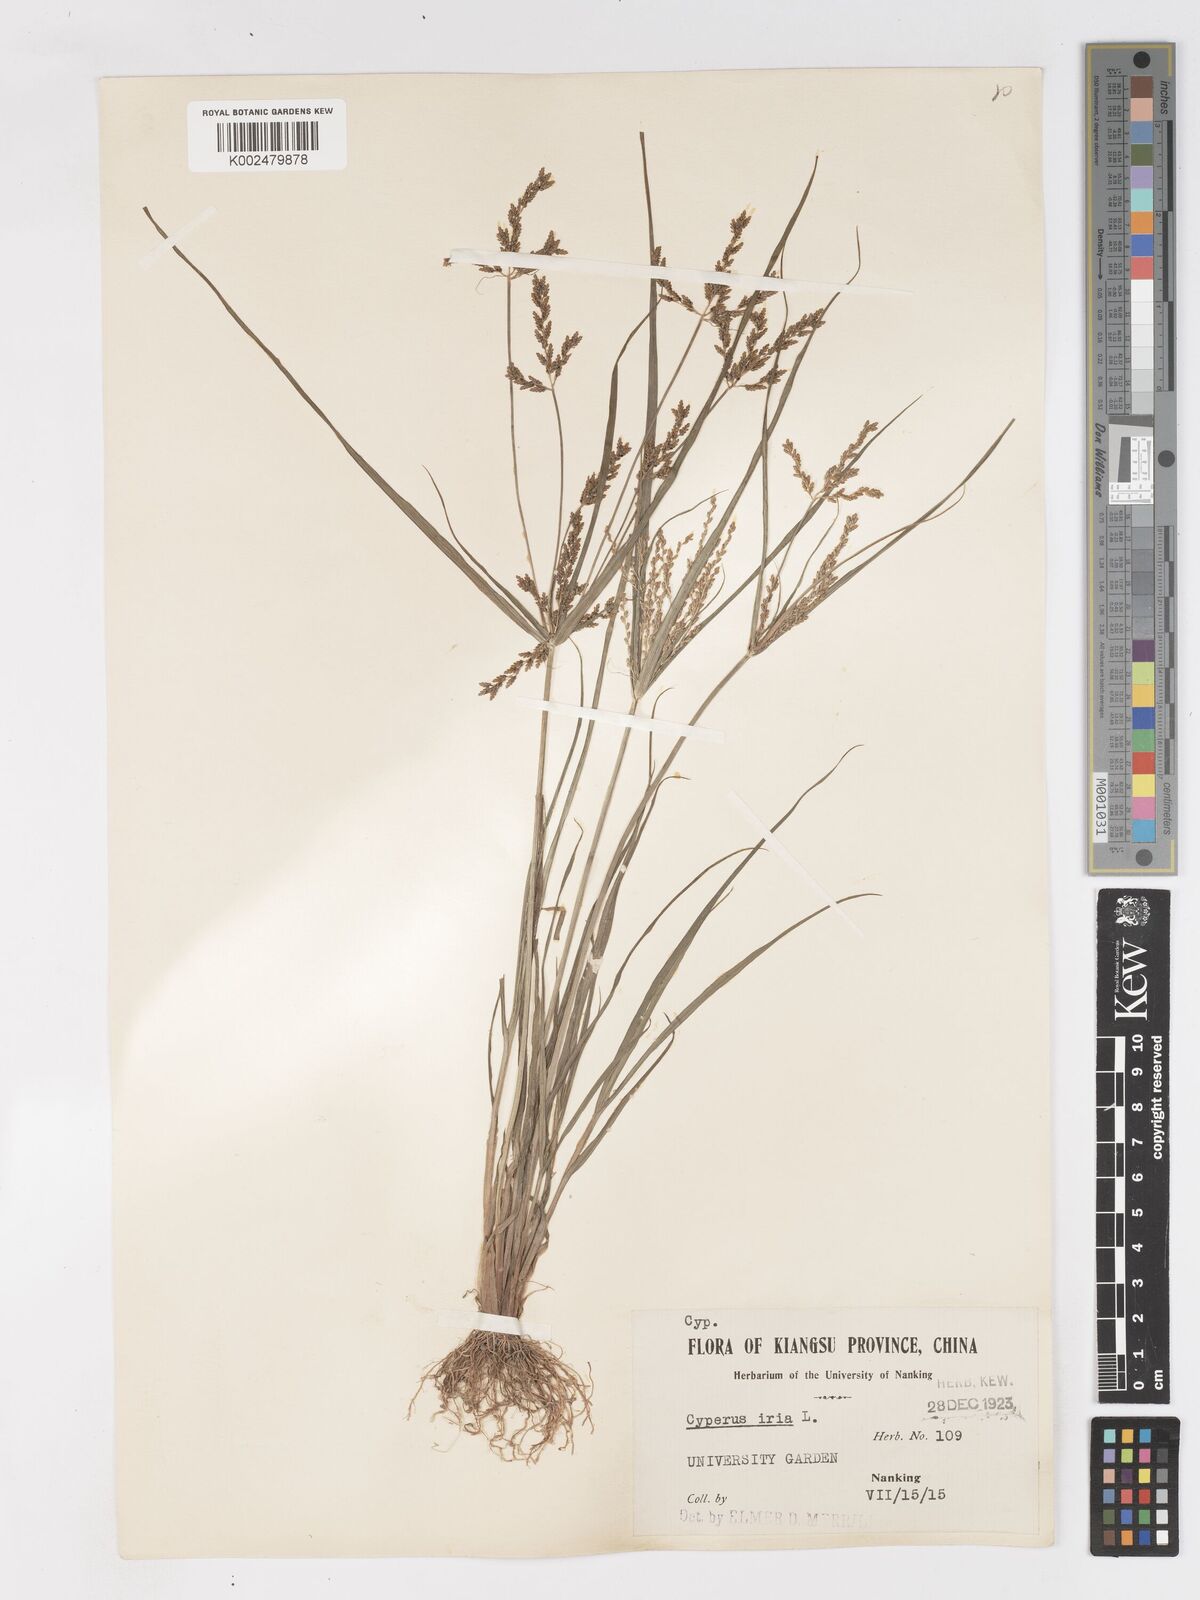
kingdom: Plantae
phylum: Tracheophyta
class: Liliopsida
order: Poales
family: Cyperaceae
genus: Cyperus
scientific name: Cyperus iria
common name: Ricefield flatsedge
